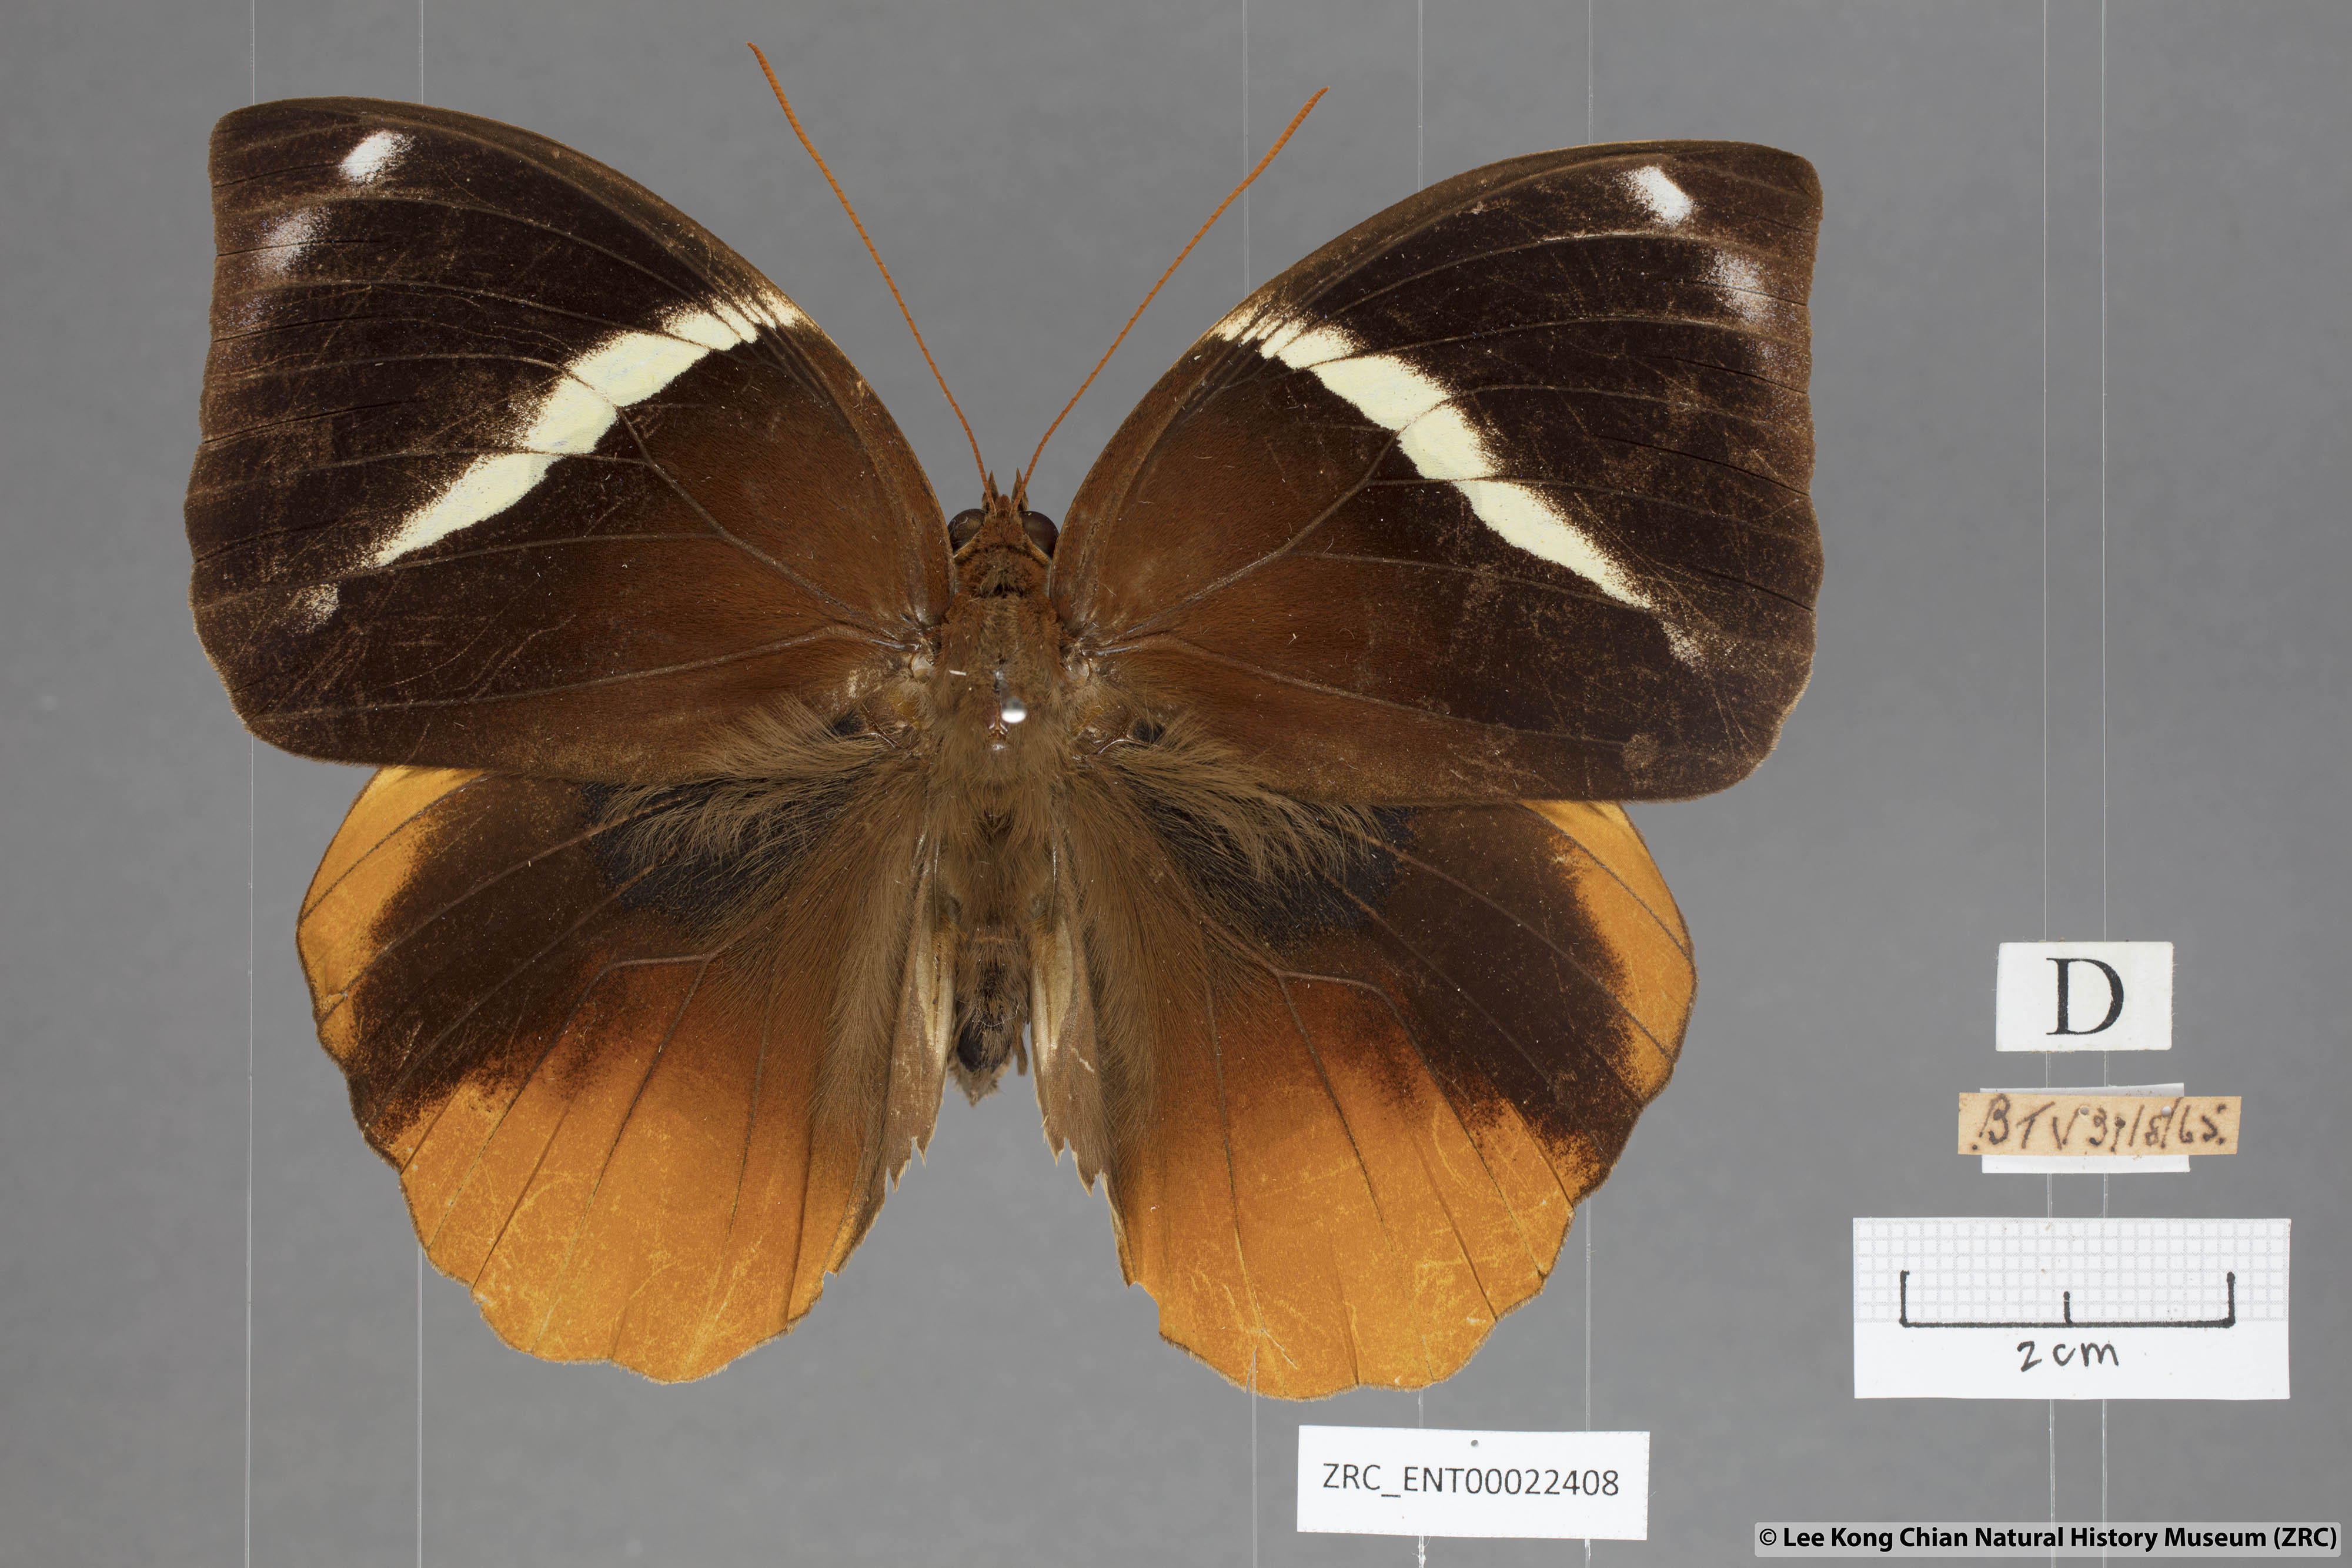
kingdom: Animalia
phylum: Arthropoda
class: Insecta
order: Lepidoptera
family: Nymphalidae
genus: Thauria
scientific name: Thauria aliris
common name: Tufted jungle king
